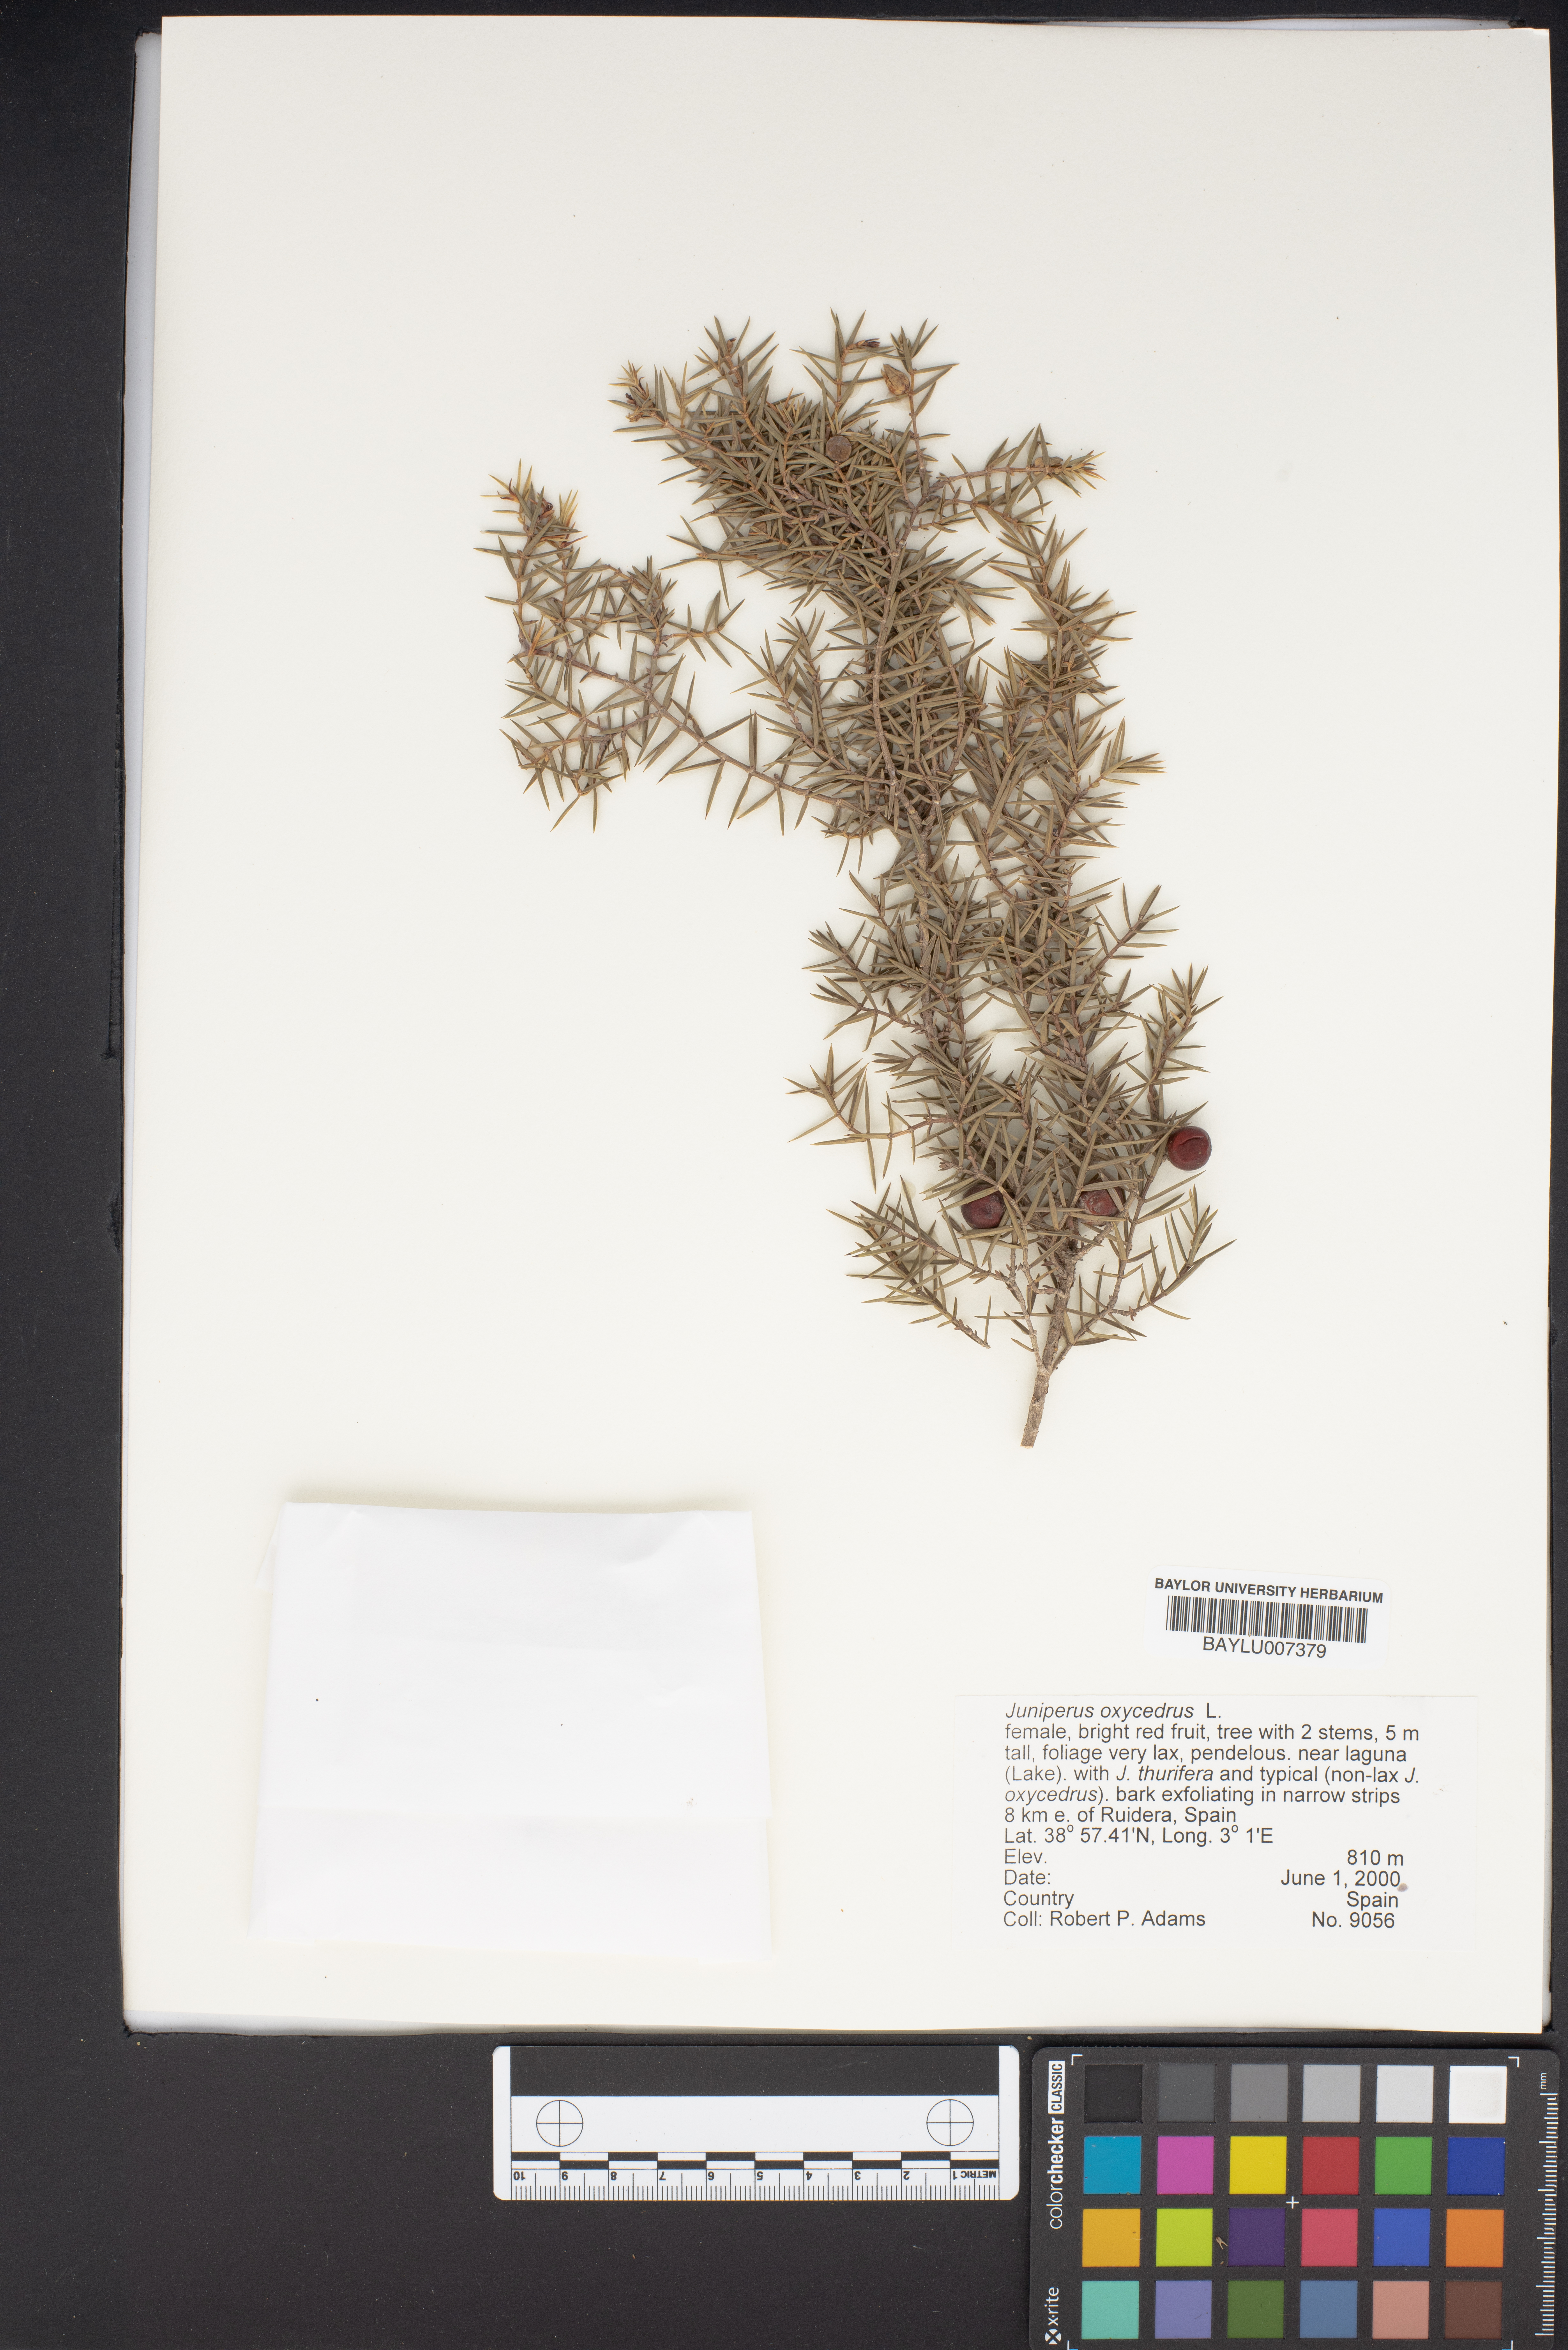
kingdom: Plantae
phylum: Tracheophyta
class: Pinopsida
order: Pinales
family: Cupressaceae
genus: Juniperus
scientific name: Juniperus oxycedrus
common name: Prickly juniper
